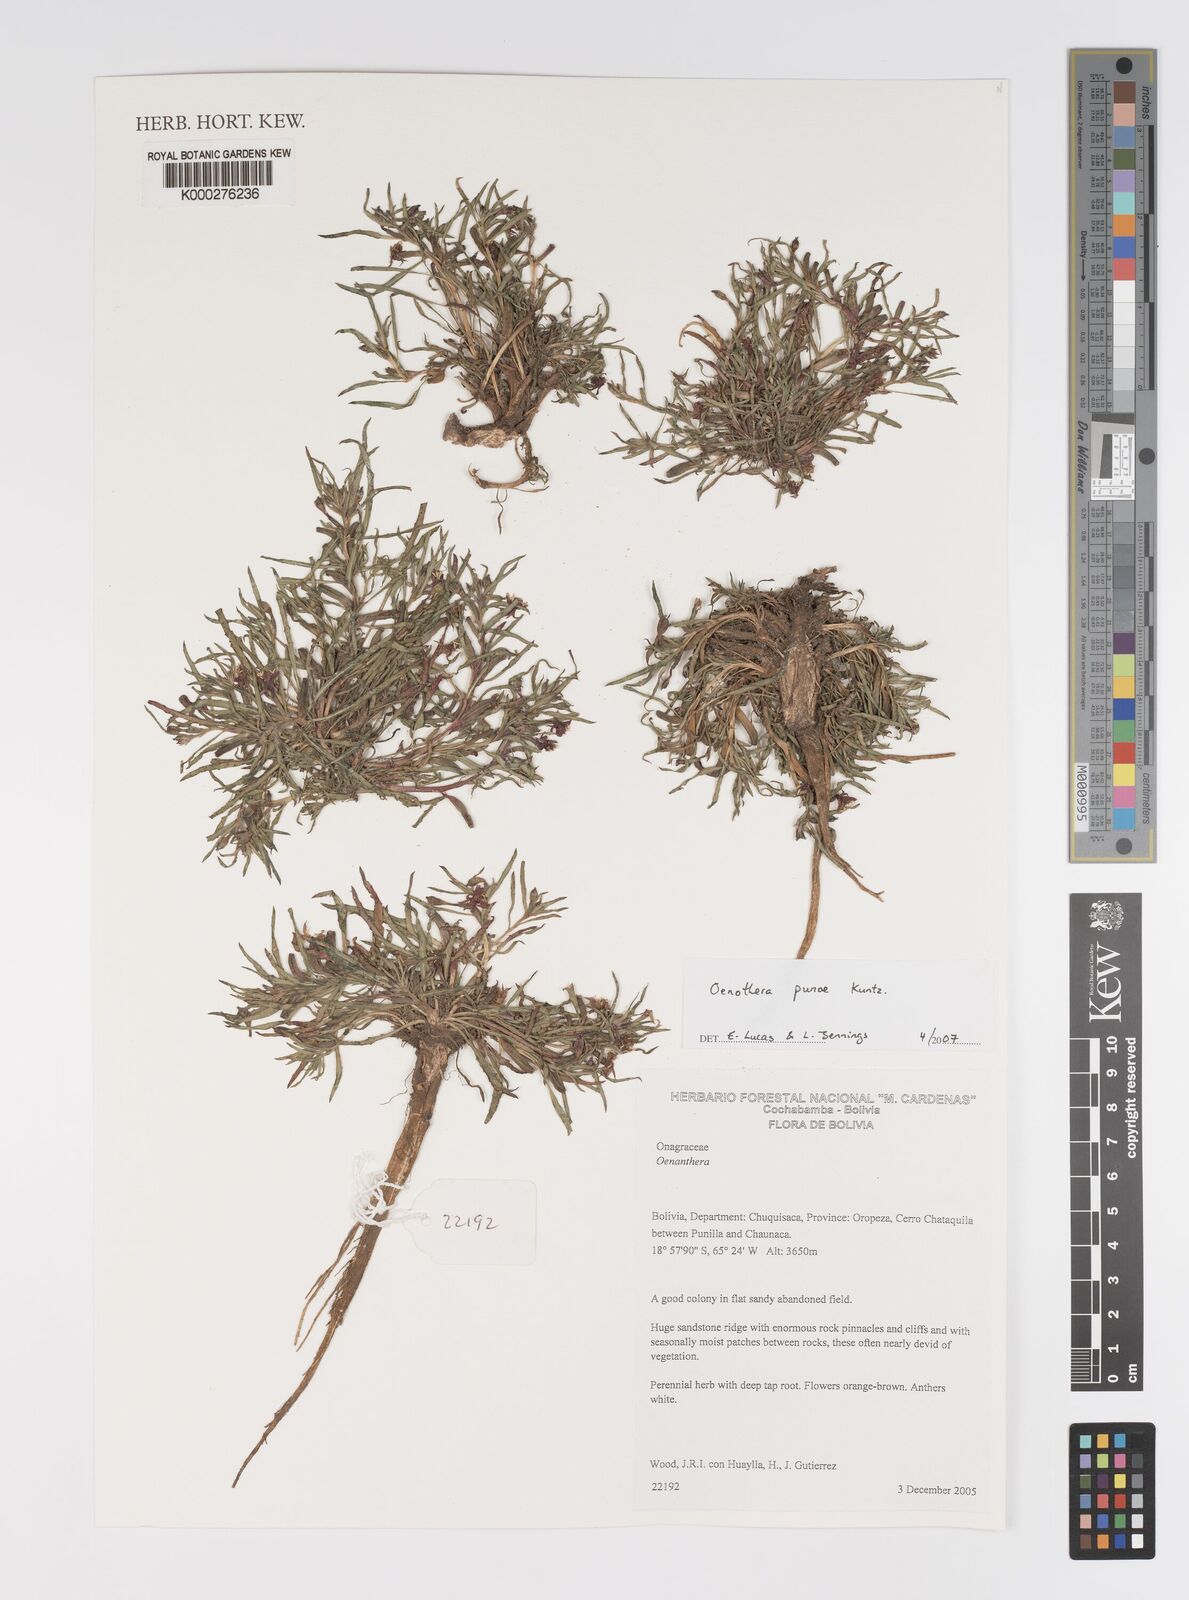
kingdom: Plantae
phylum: Tracheophyta
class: Magnoliopsida
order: Myrtales
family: Onagraceae
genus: Oenothera
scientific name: Oenothera punae
